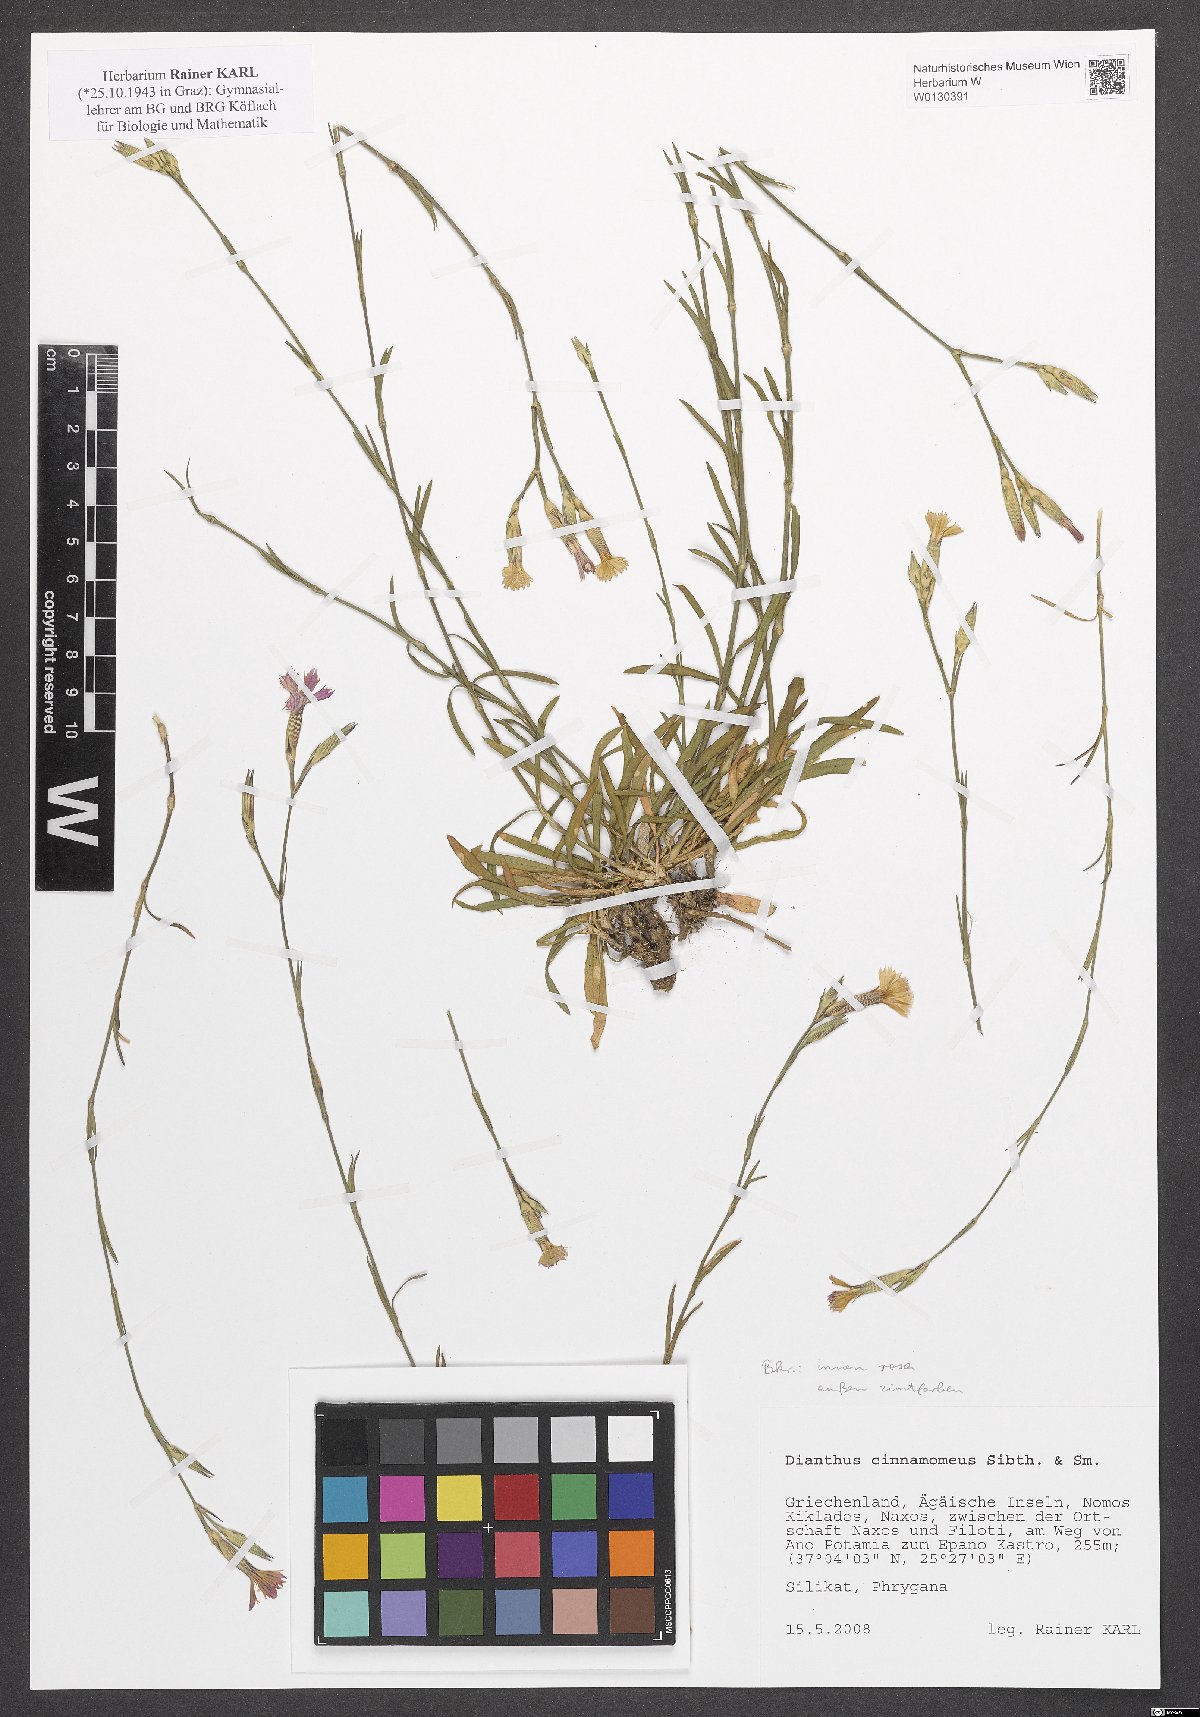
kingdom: Plantae
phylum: Tracheophyta
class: Magnoliopsida
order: Caryophyllales
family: Caryophyllaceae
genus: Dianthus
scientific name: Dianthus cinnamomeus
